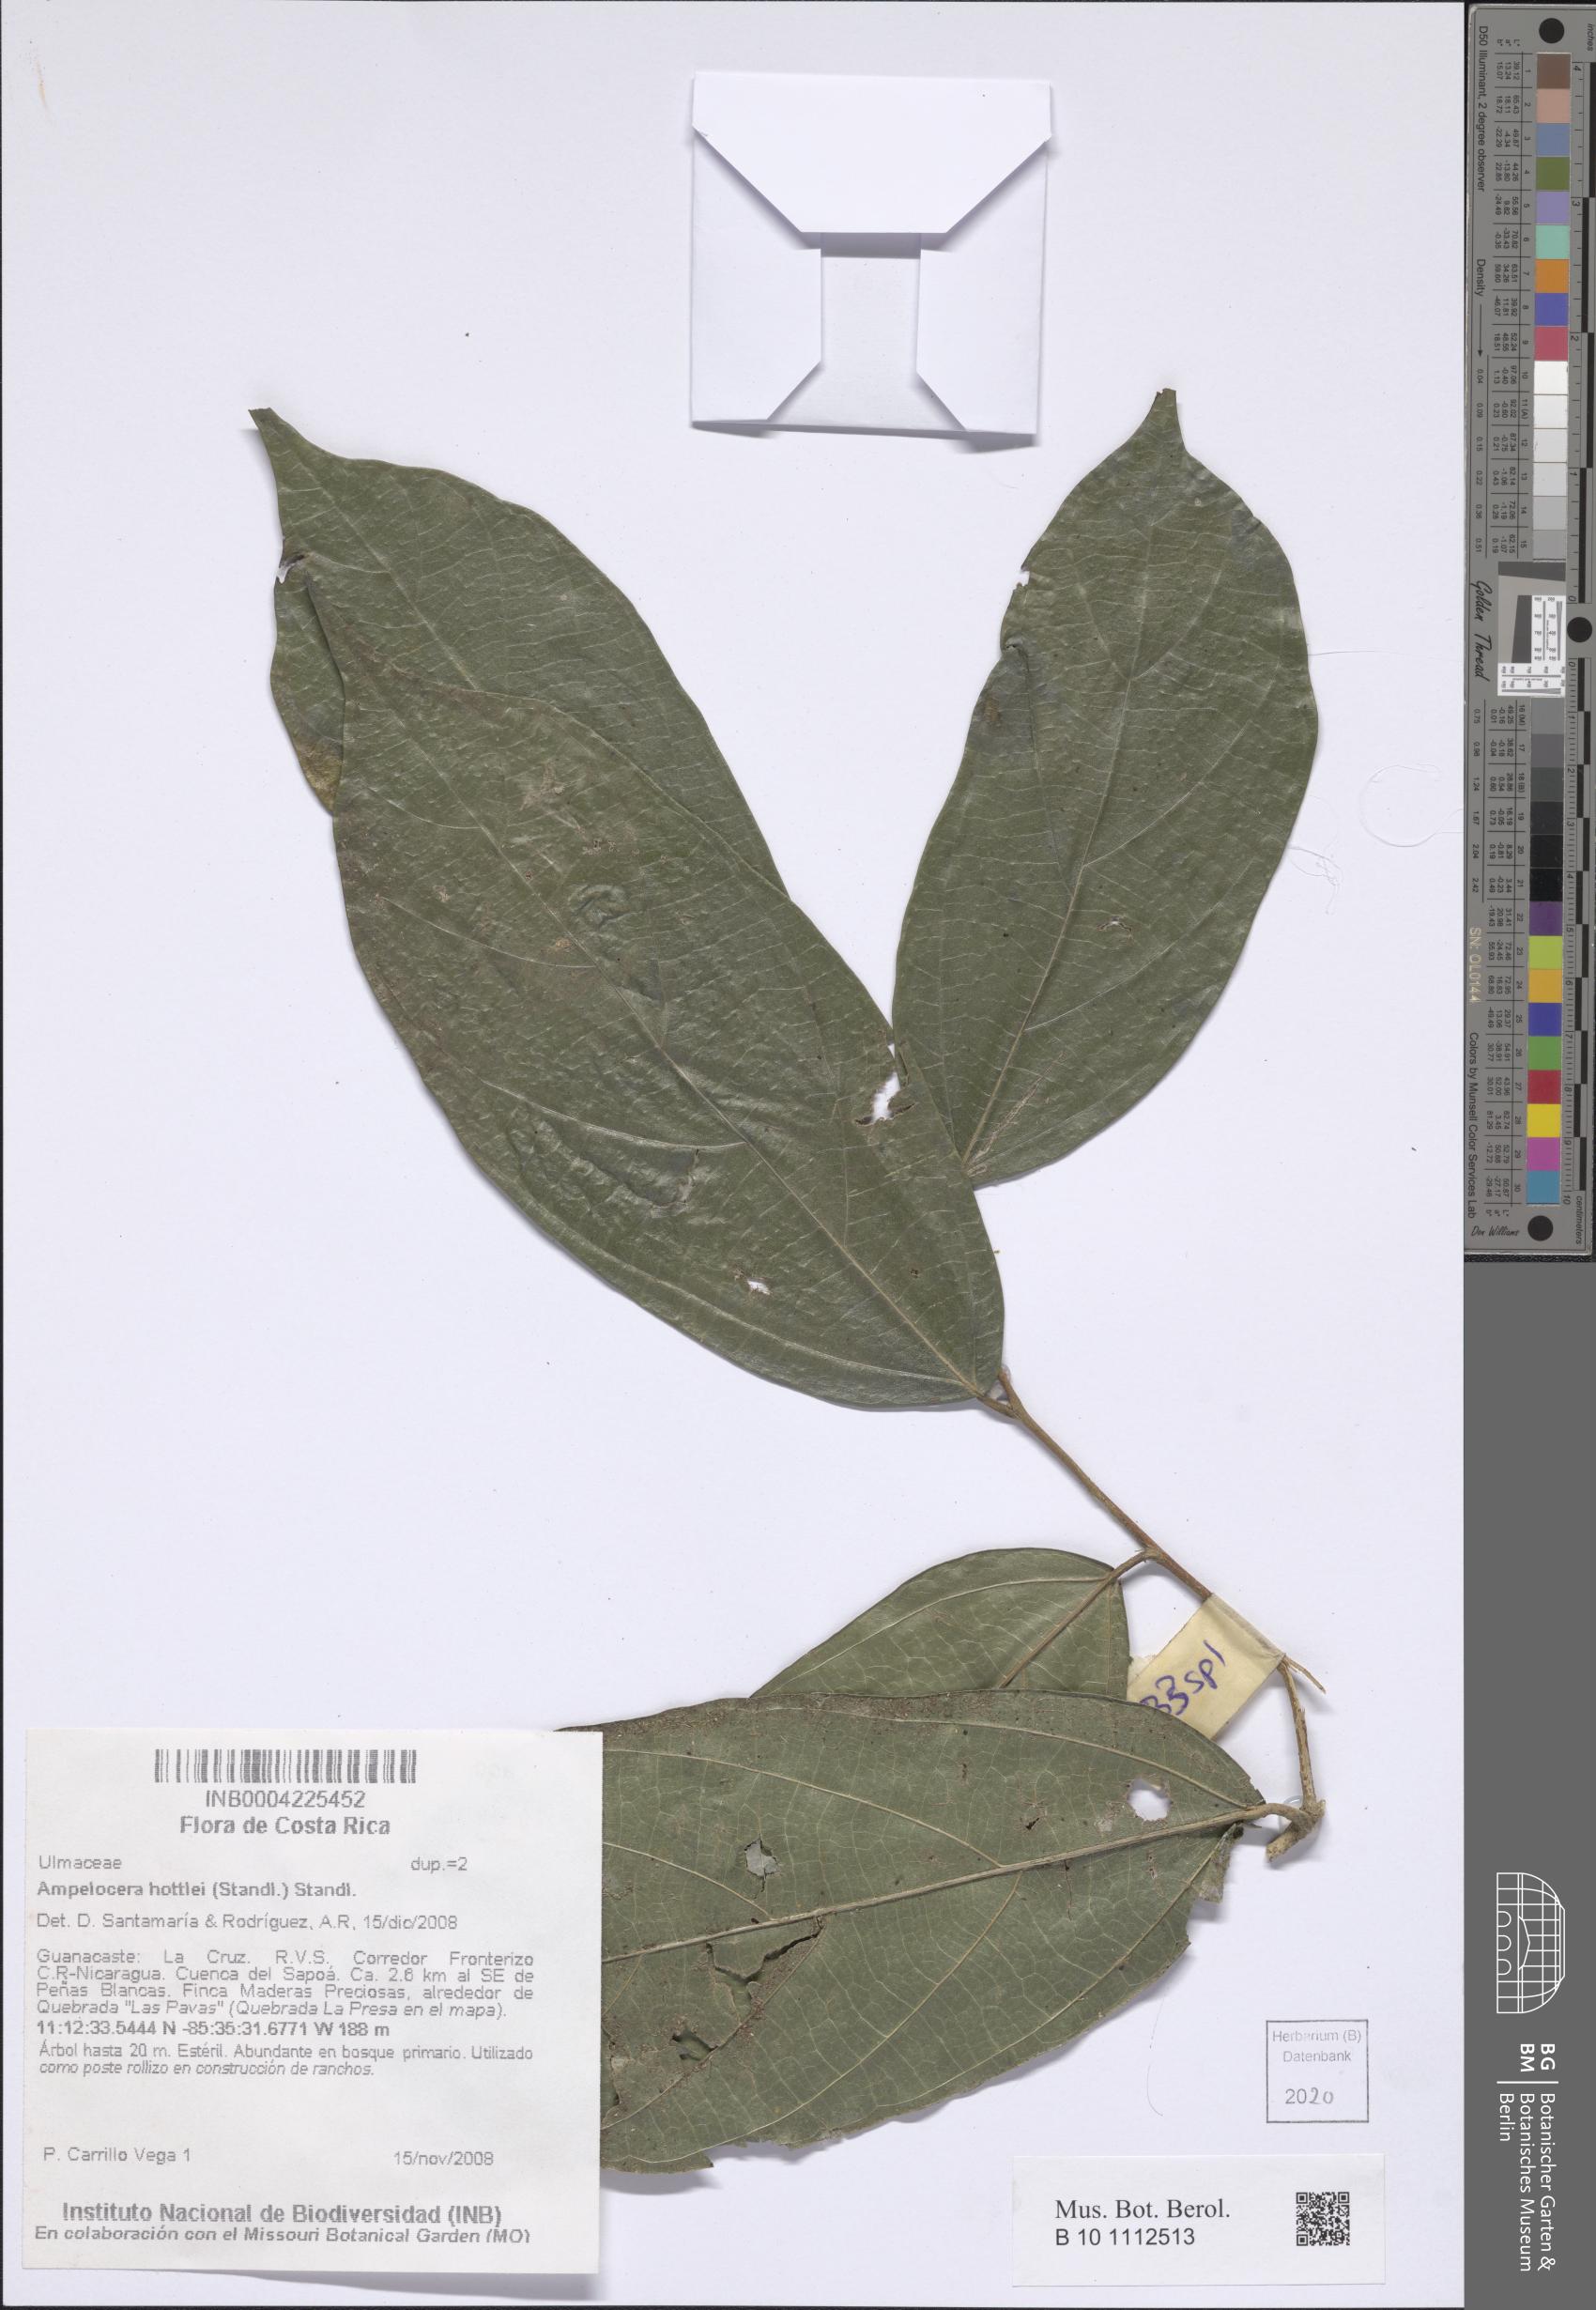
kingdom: Plantae
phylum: Tracheophyta
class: Magnoliopsida
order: Rosales
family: Cannabaceae
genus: Ampelocera
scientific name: Ampelocera hottlei
